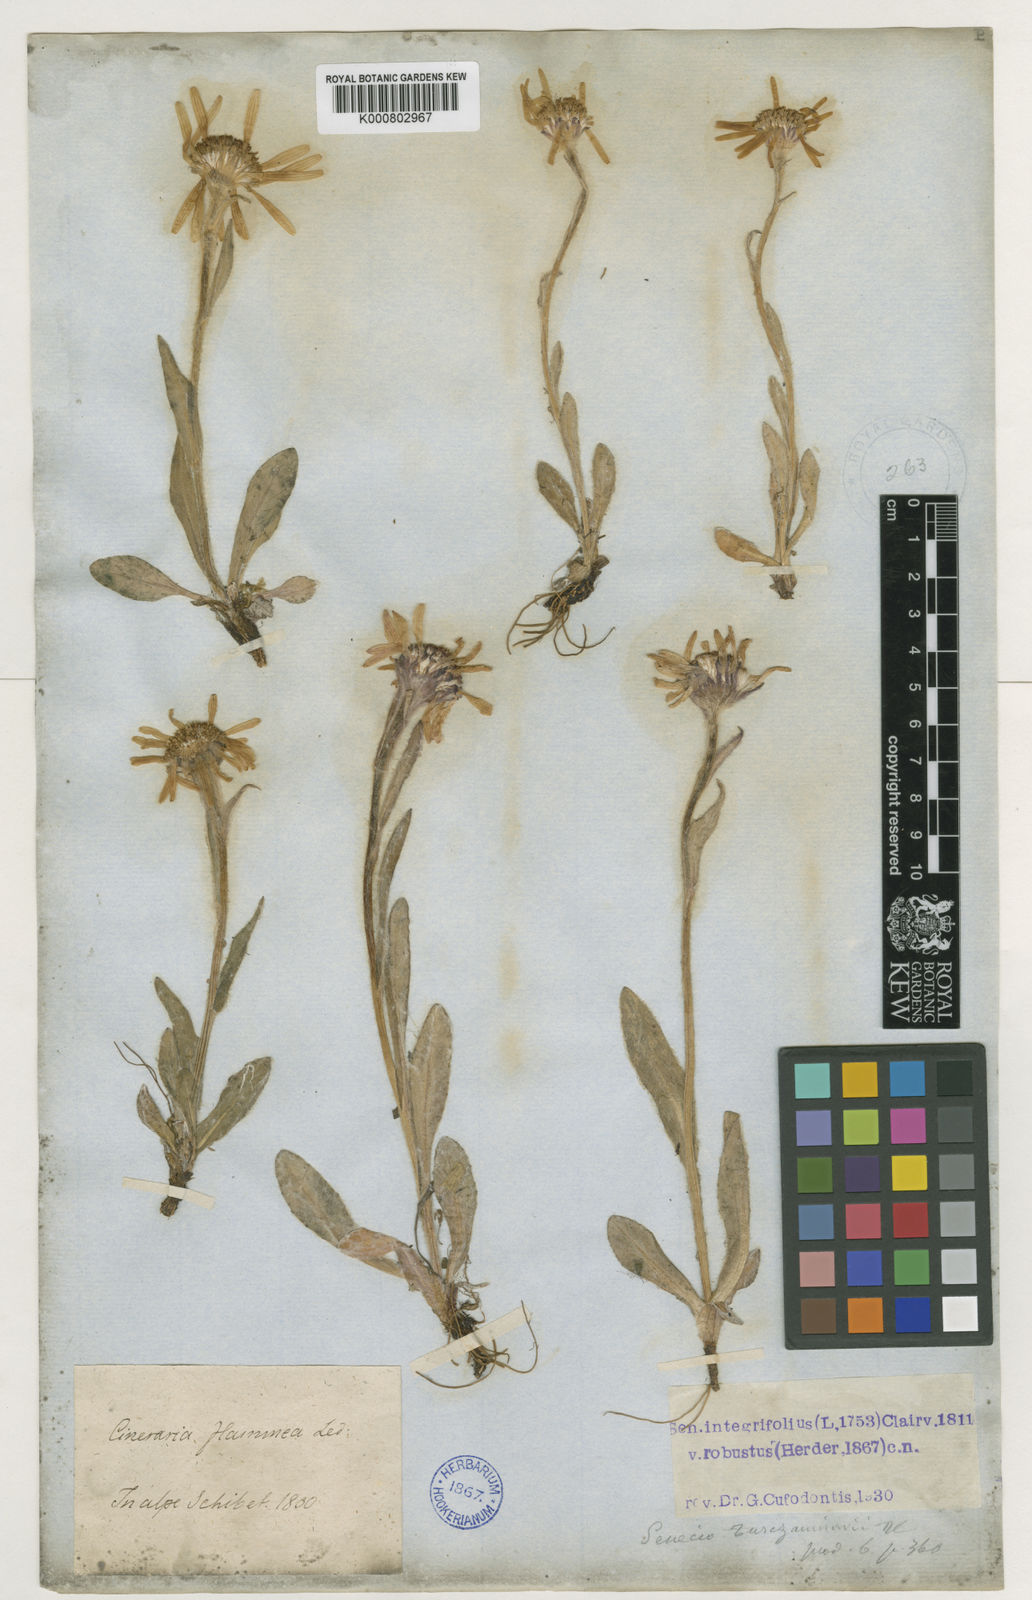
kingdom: Plantae
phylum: Tracheophyta
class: Magnoliopsida
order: Asterales
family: Asteraceae
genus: Tephroseris
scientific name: Tephroseris turczaninovii
